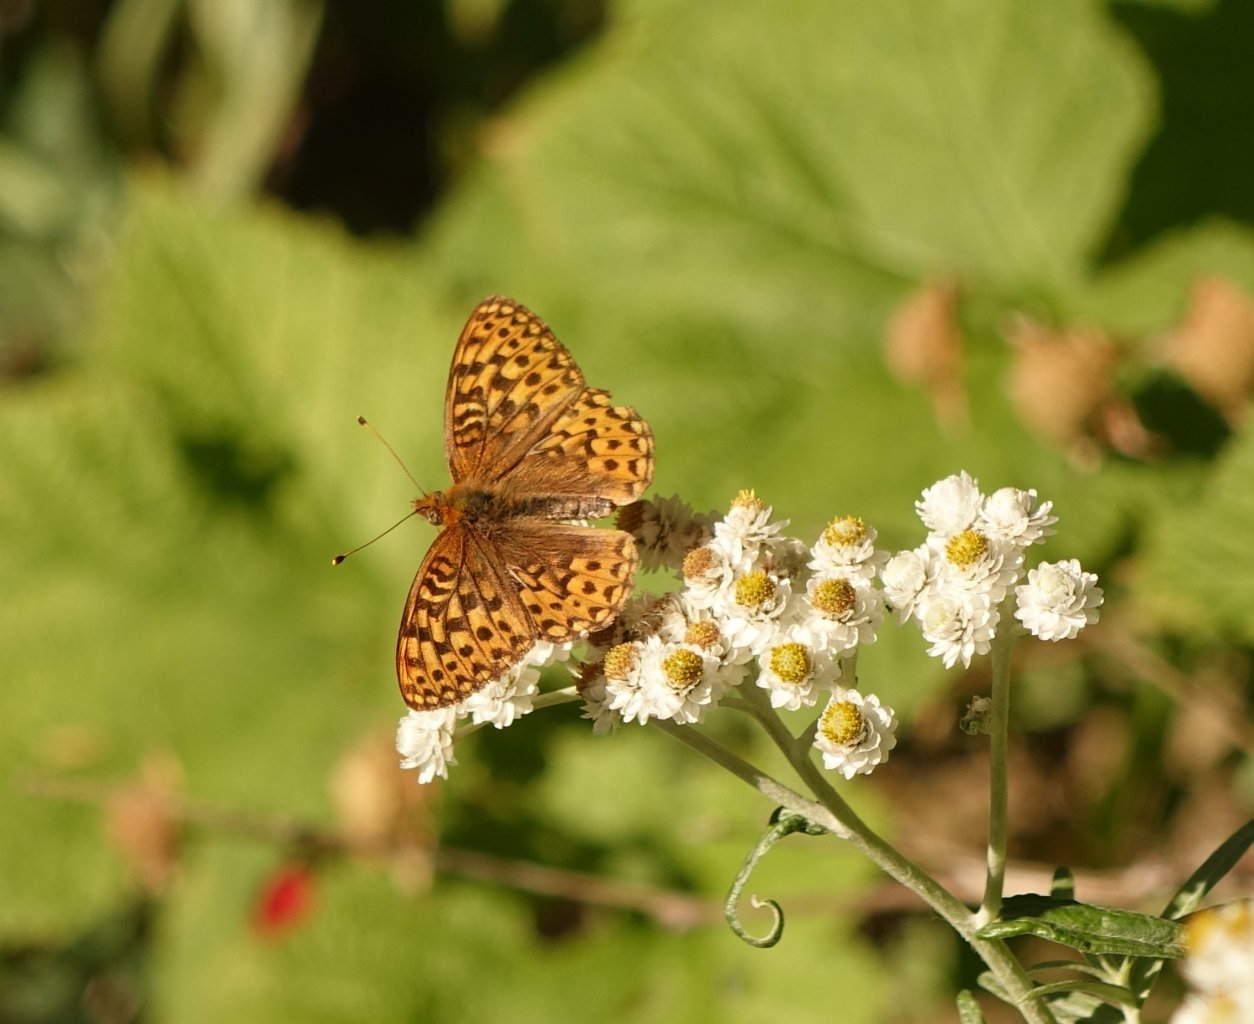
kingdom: Animalia
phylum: Arthropoda
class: Insecta
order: Lepidoptera
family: Nymphalidae
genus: Speyeria
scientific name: Speyeria hydaspe
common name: Hydaspe Fritillary
